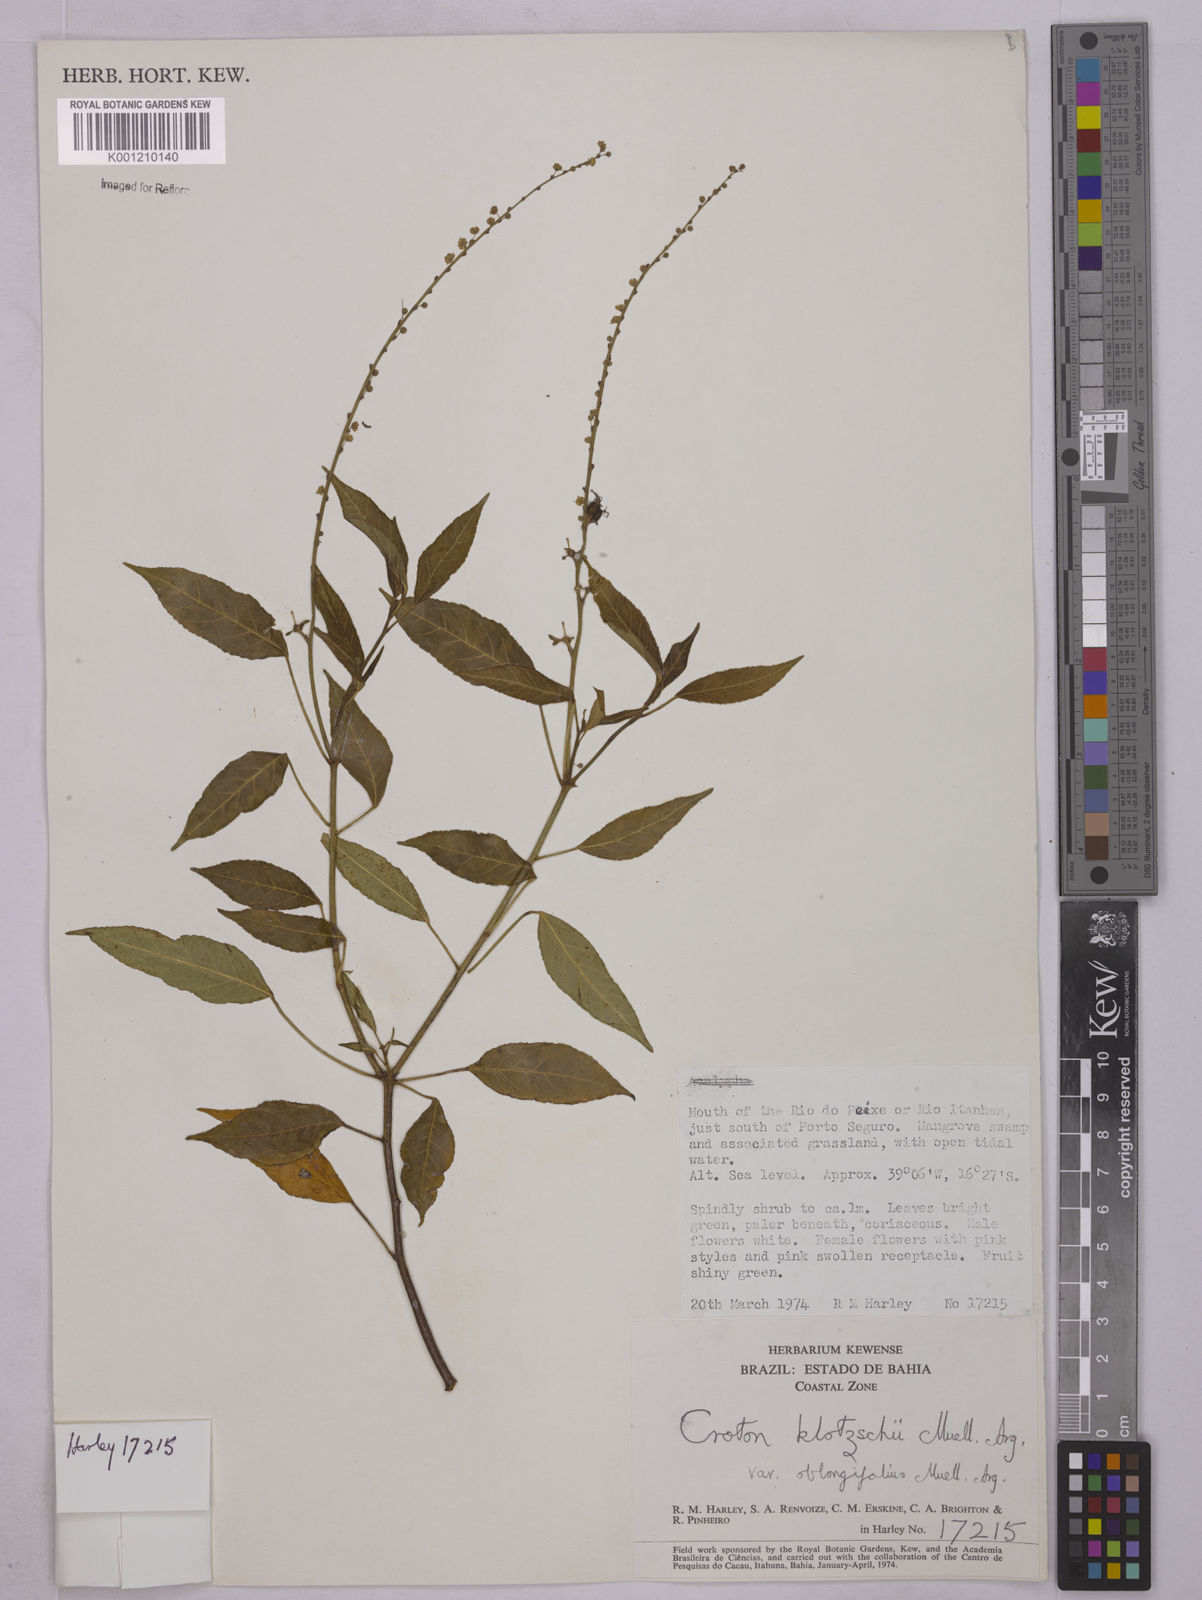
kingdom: Plantae
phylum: Tracheophyta
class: Magnoliopsida
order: Malpighiales
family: Euphorbiaceae
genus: Astraea
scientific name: Astraea macroura
